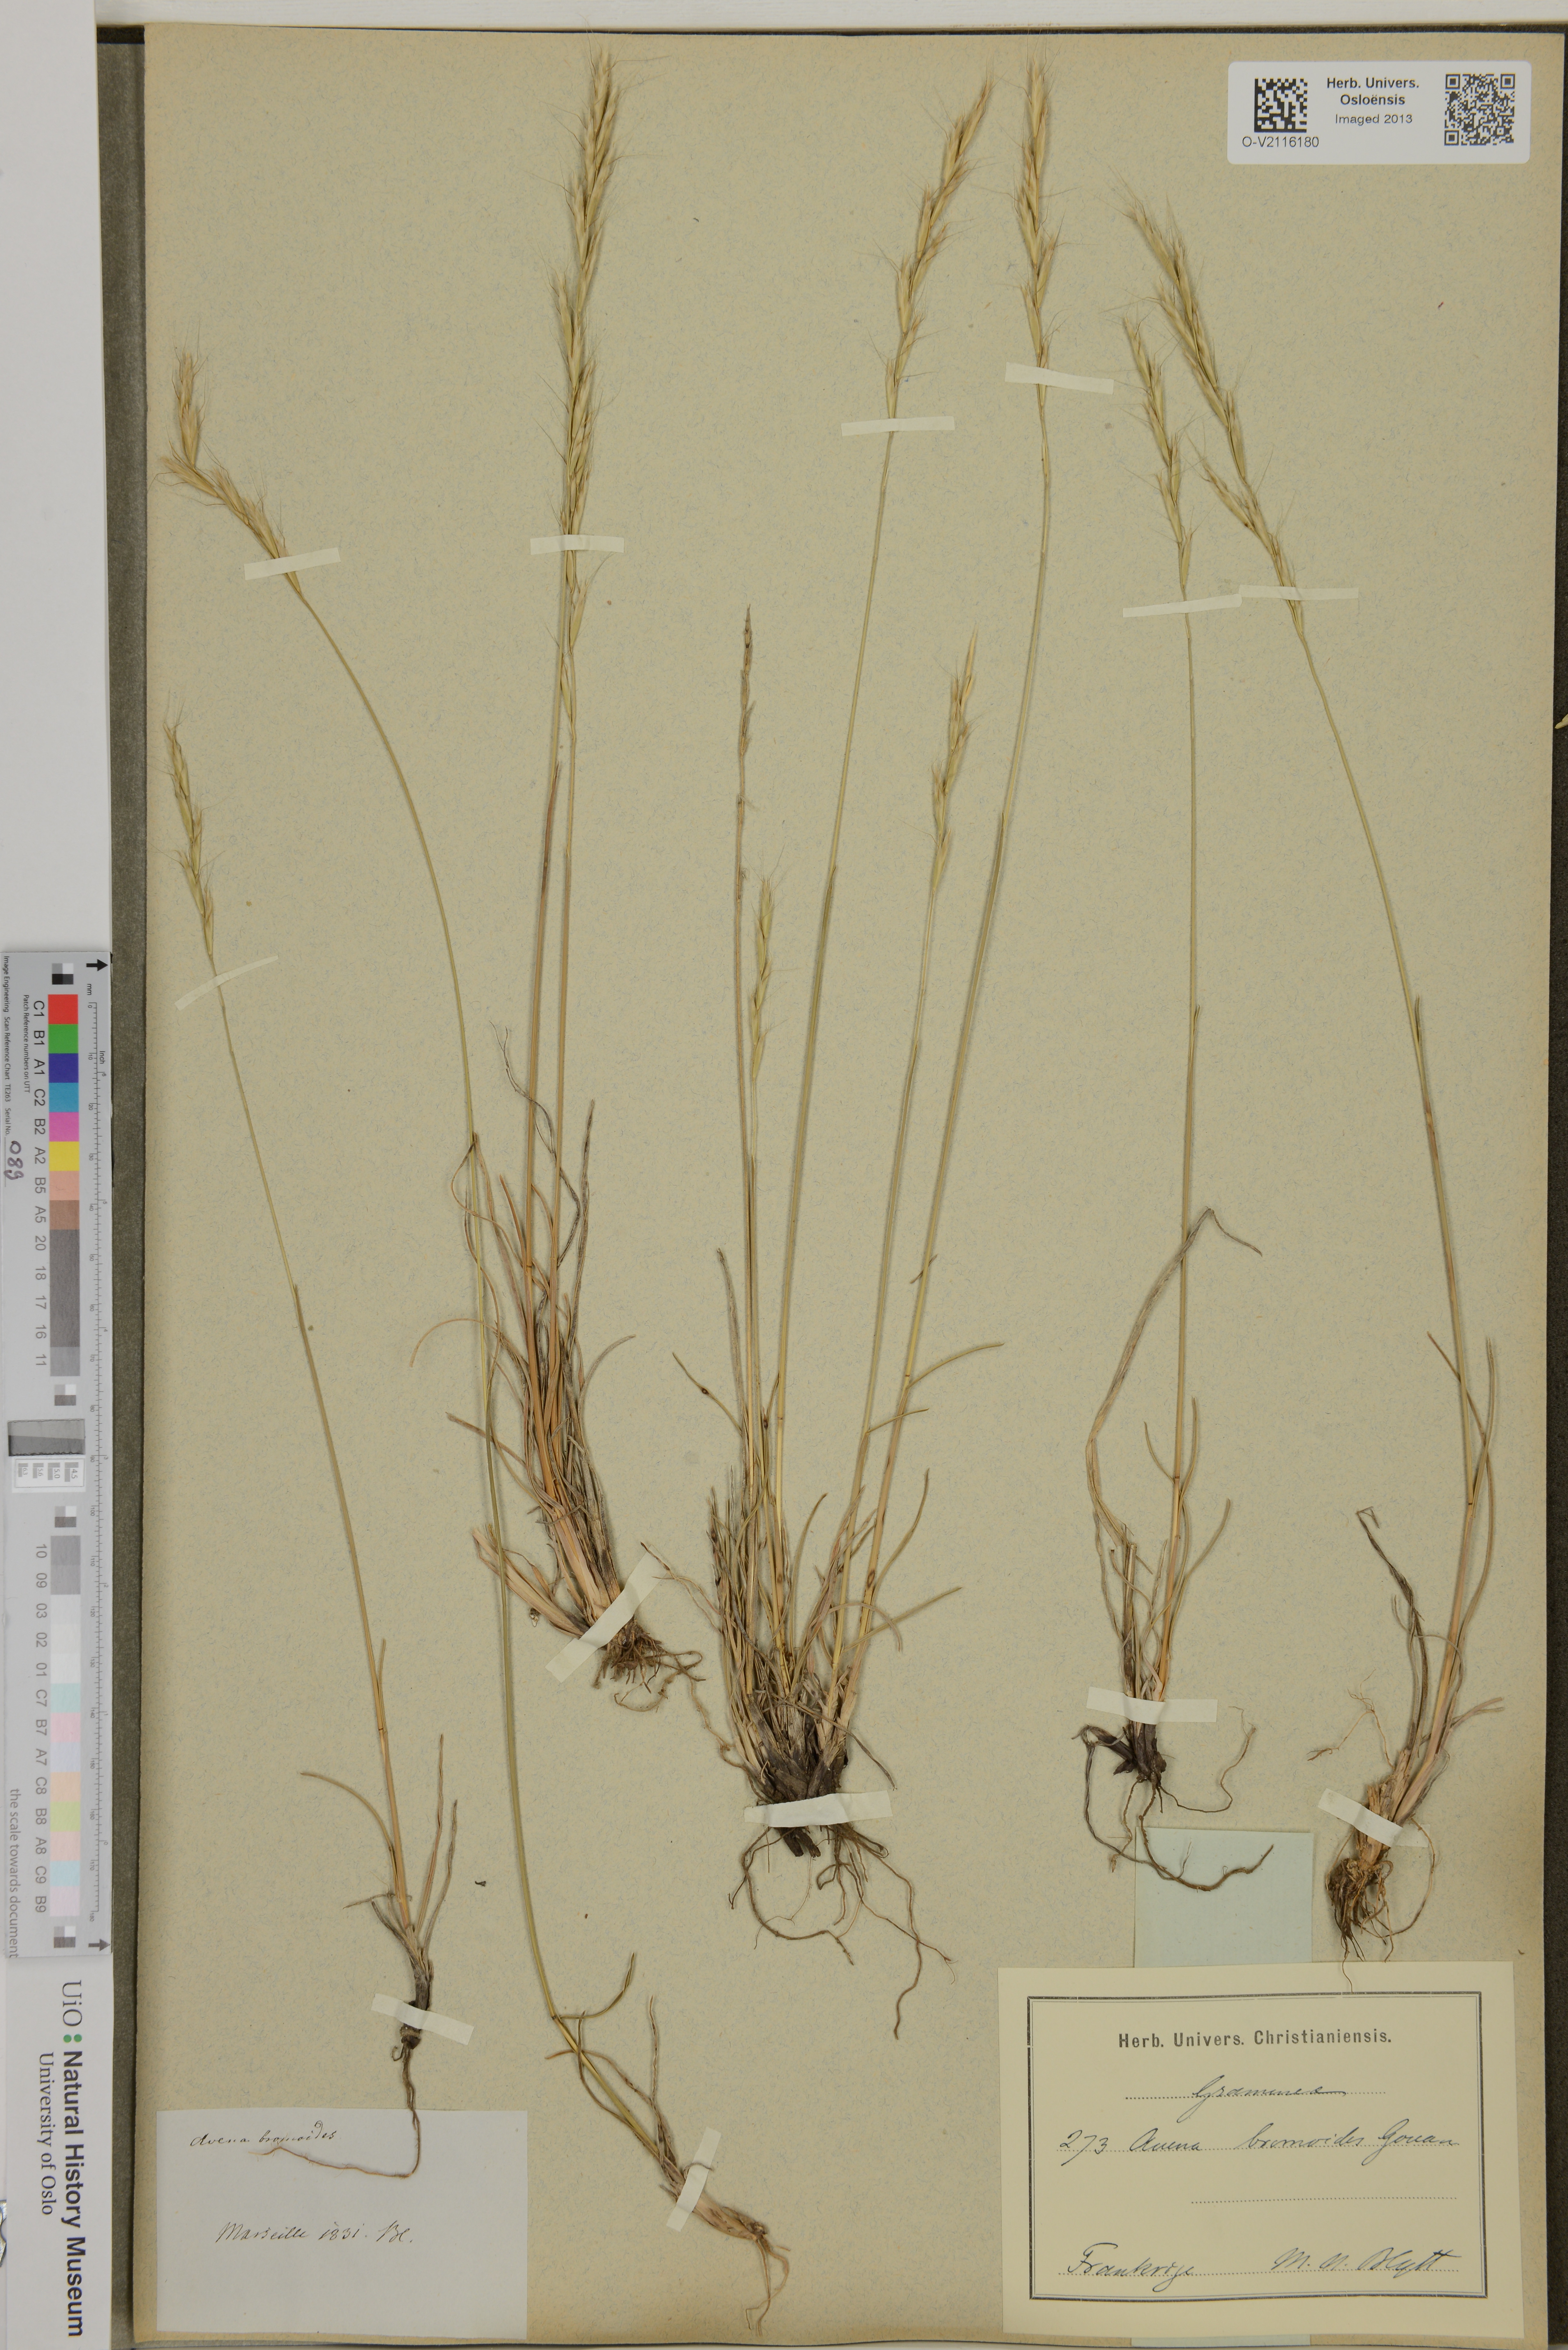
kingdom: Plantae
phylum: Tracheophyta
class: Liliopsida
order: Poales
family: Poaceae
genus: Helictochloa
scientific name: Helictochloa
